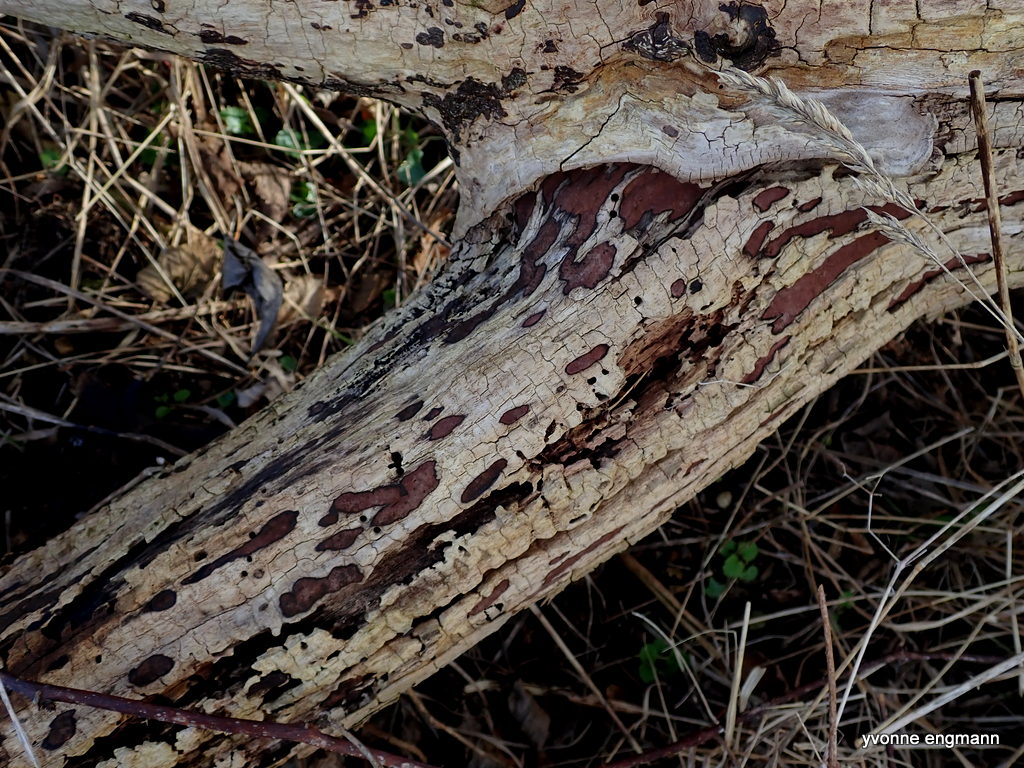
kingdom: Fungi
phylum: Ascomycota
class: Sordariomycetes
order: Xylariales
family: Hypoxylaceae
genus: Hypoxylon
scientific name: Hypoxylon petriniae
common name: nedsænket kulbær
